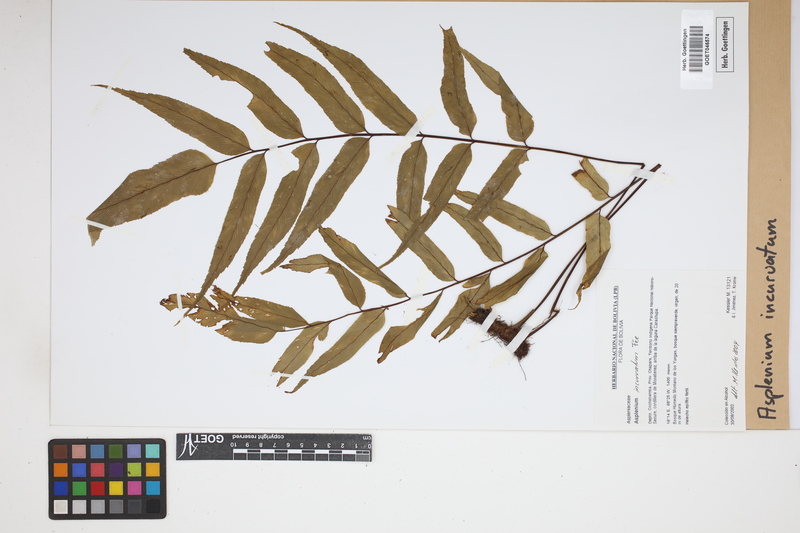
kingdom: Plantae
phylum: Tracheophyta
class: Polypodiopsida
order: Polypodiales
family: Aspleniaceae
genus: Asplenium
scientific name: Asplenium serra
